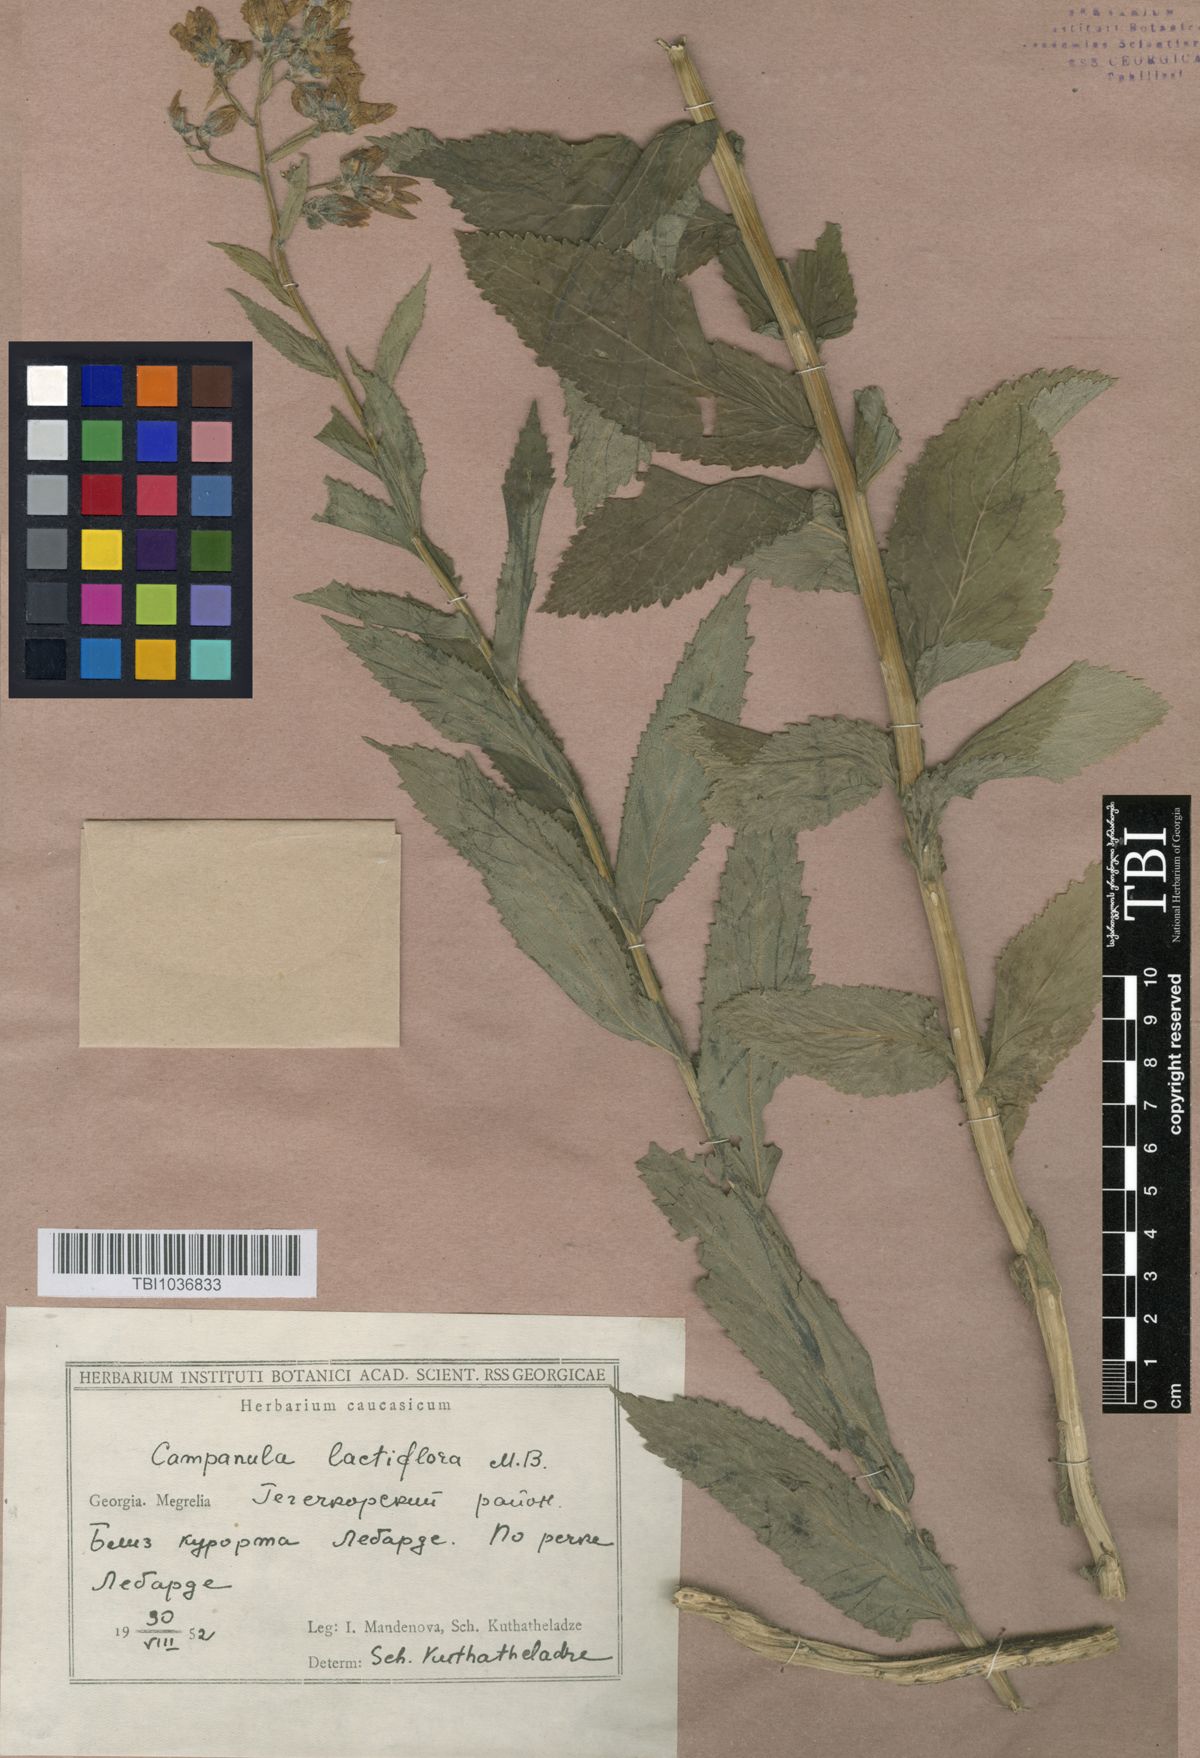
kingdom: Plantae
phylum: Tracheophyta
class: Magnoliopsida
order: Asterales
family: Campanulaceae
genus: Campanula
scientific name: Campanula lactiflora
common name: Milky bellflower
